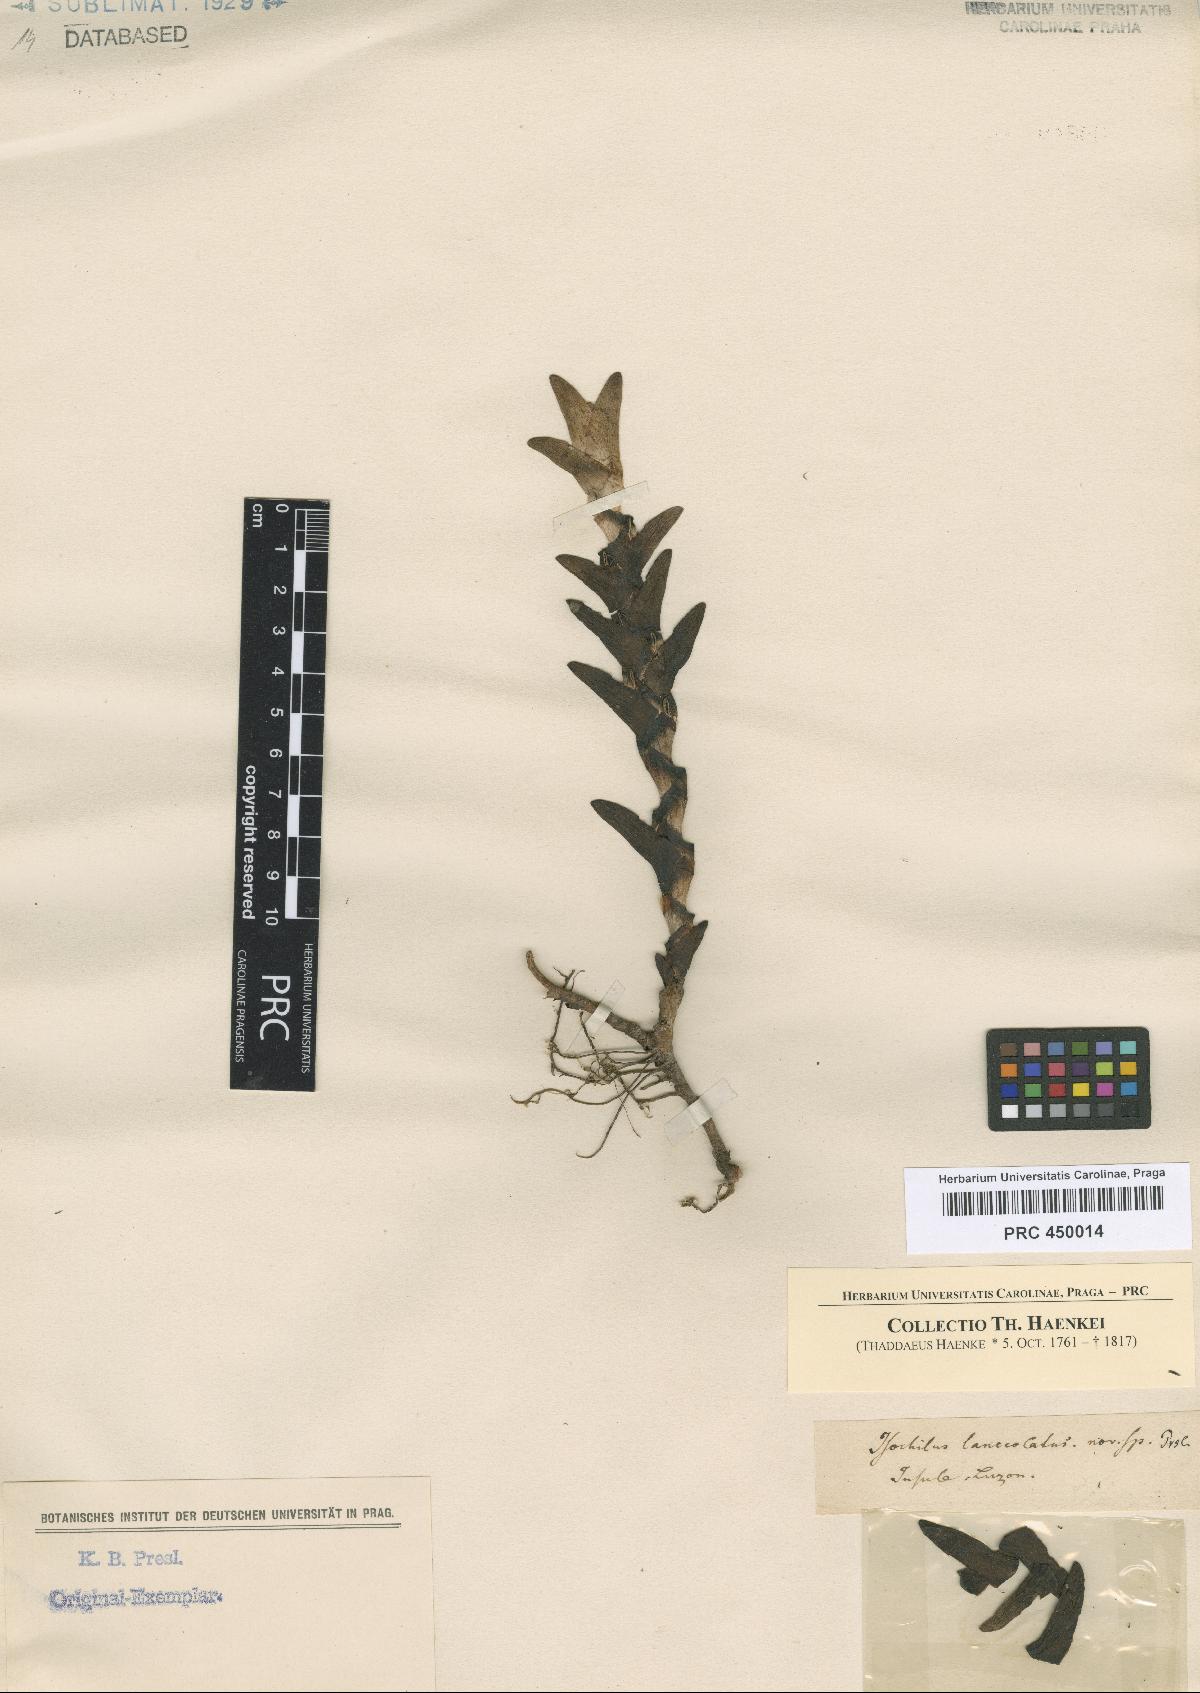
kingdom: Plantae
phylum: Tracheophyta
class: Liliopsida
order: Asparagales
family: Orchidaceae
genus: Isochilus
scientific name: Isochilus
